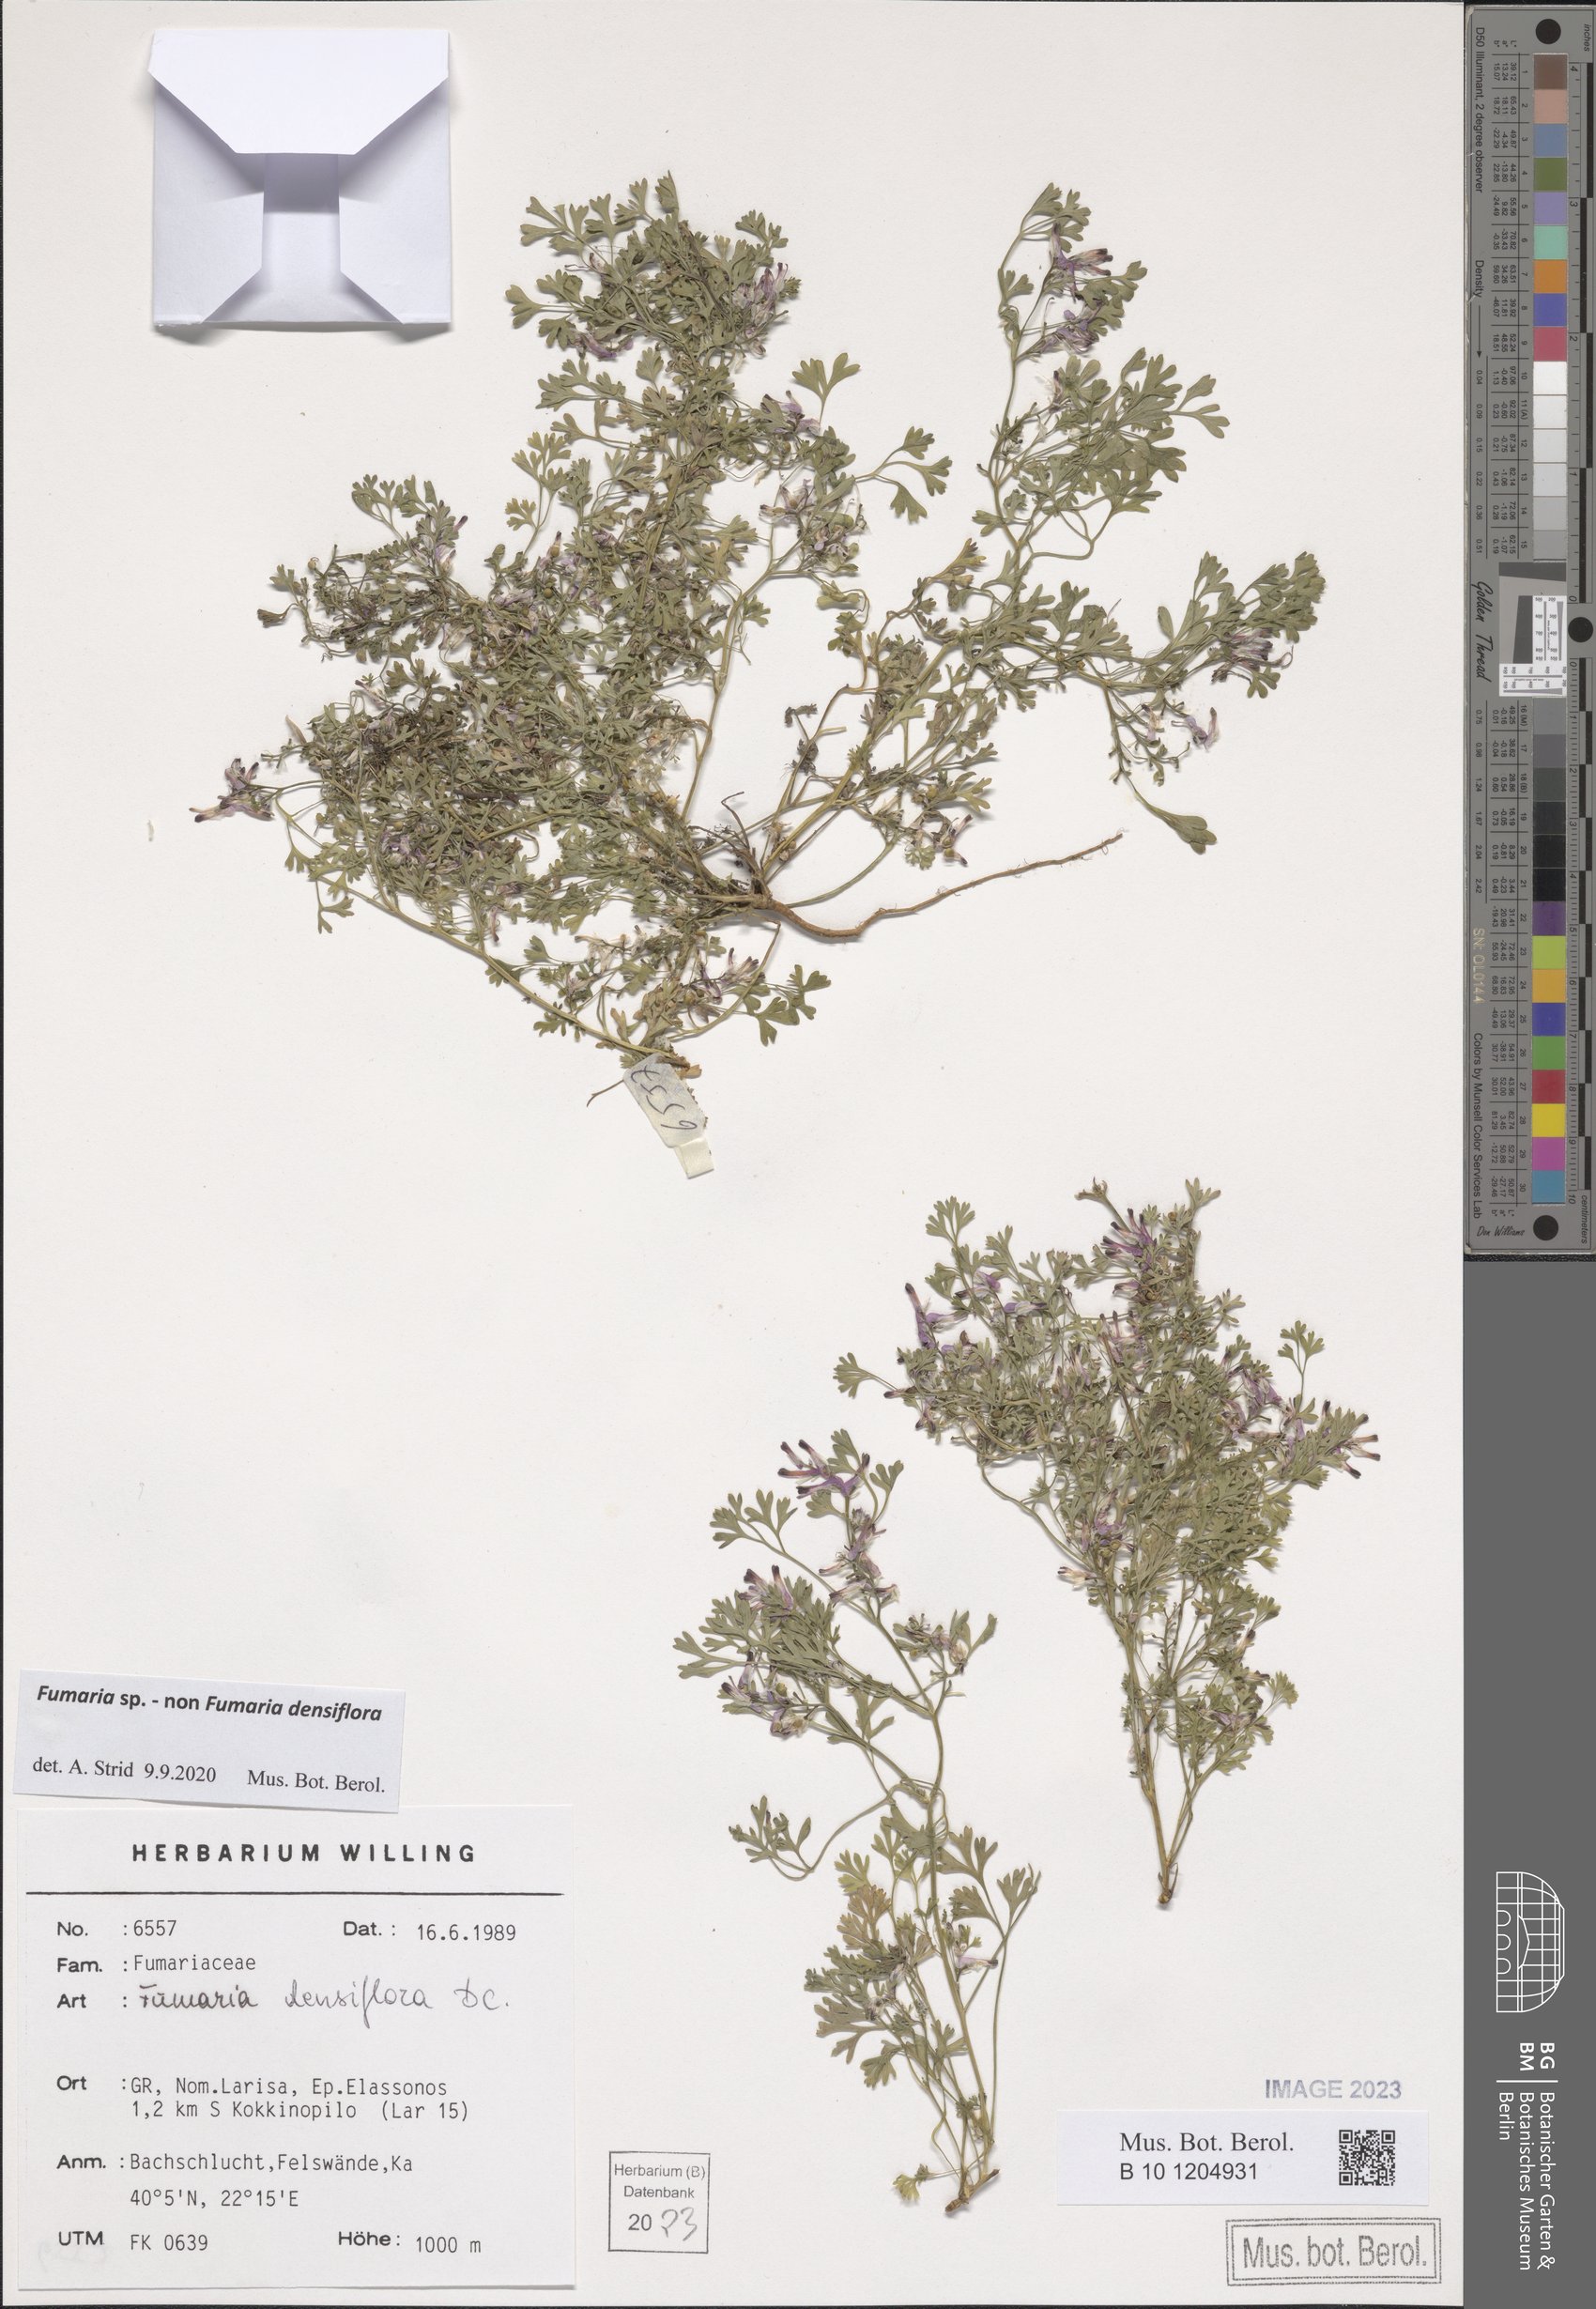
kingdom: Plantae
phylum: Tracheophyta
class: Magnoliopsida
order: Ranunculales
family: Papaveraceae
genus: Fumaria
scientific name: Fumaria
